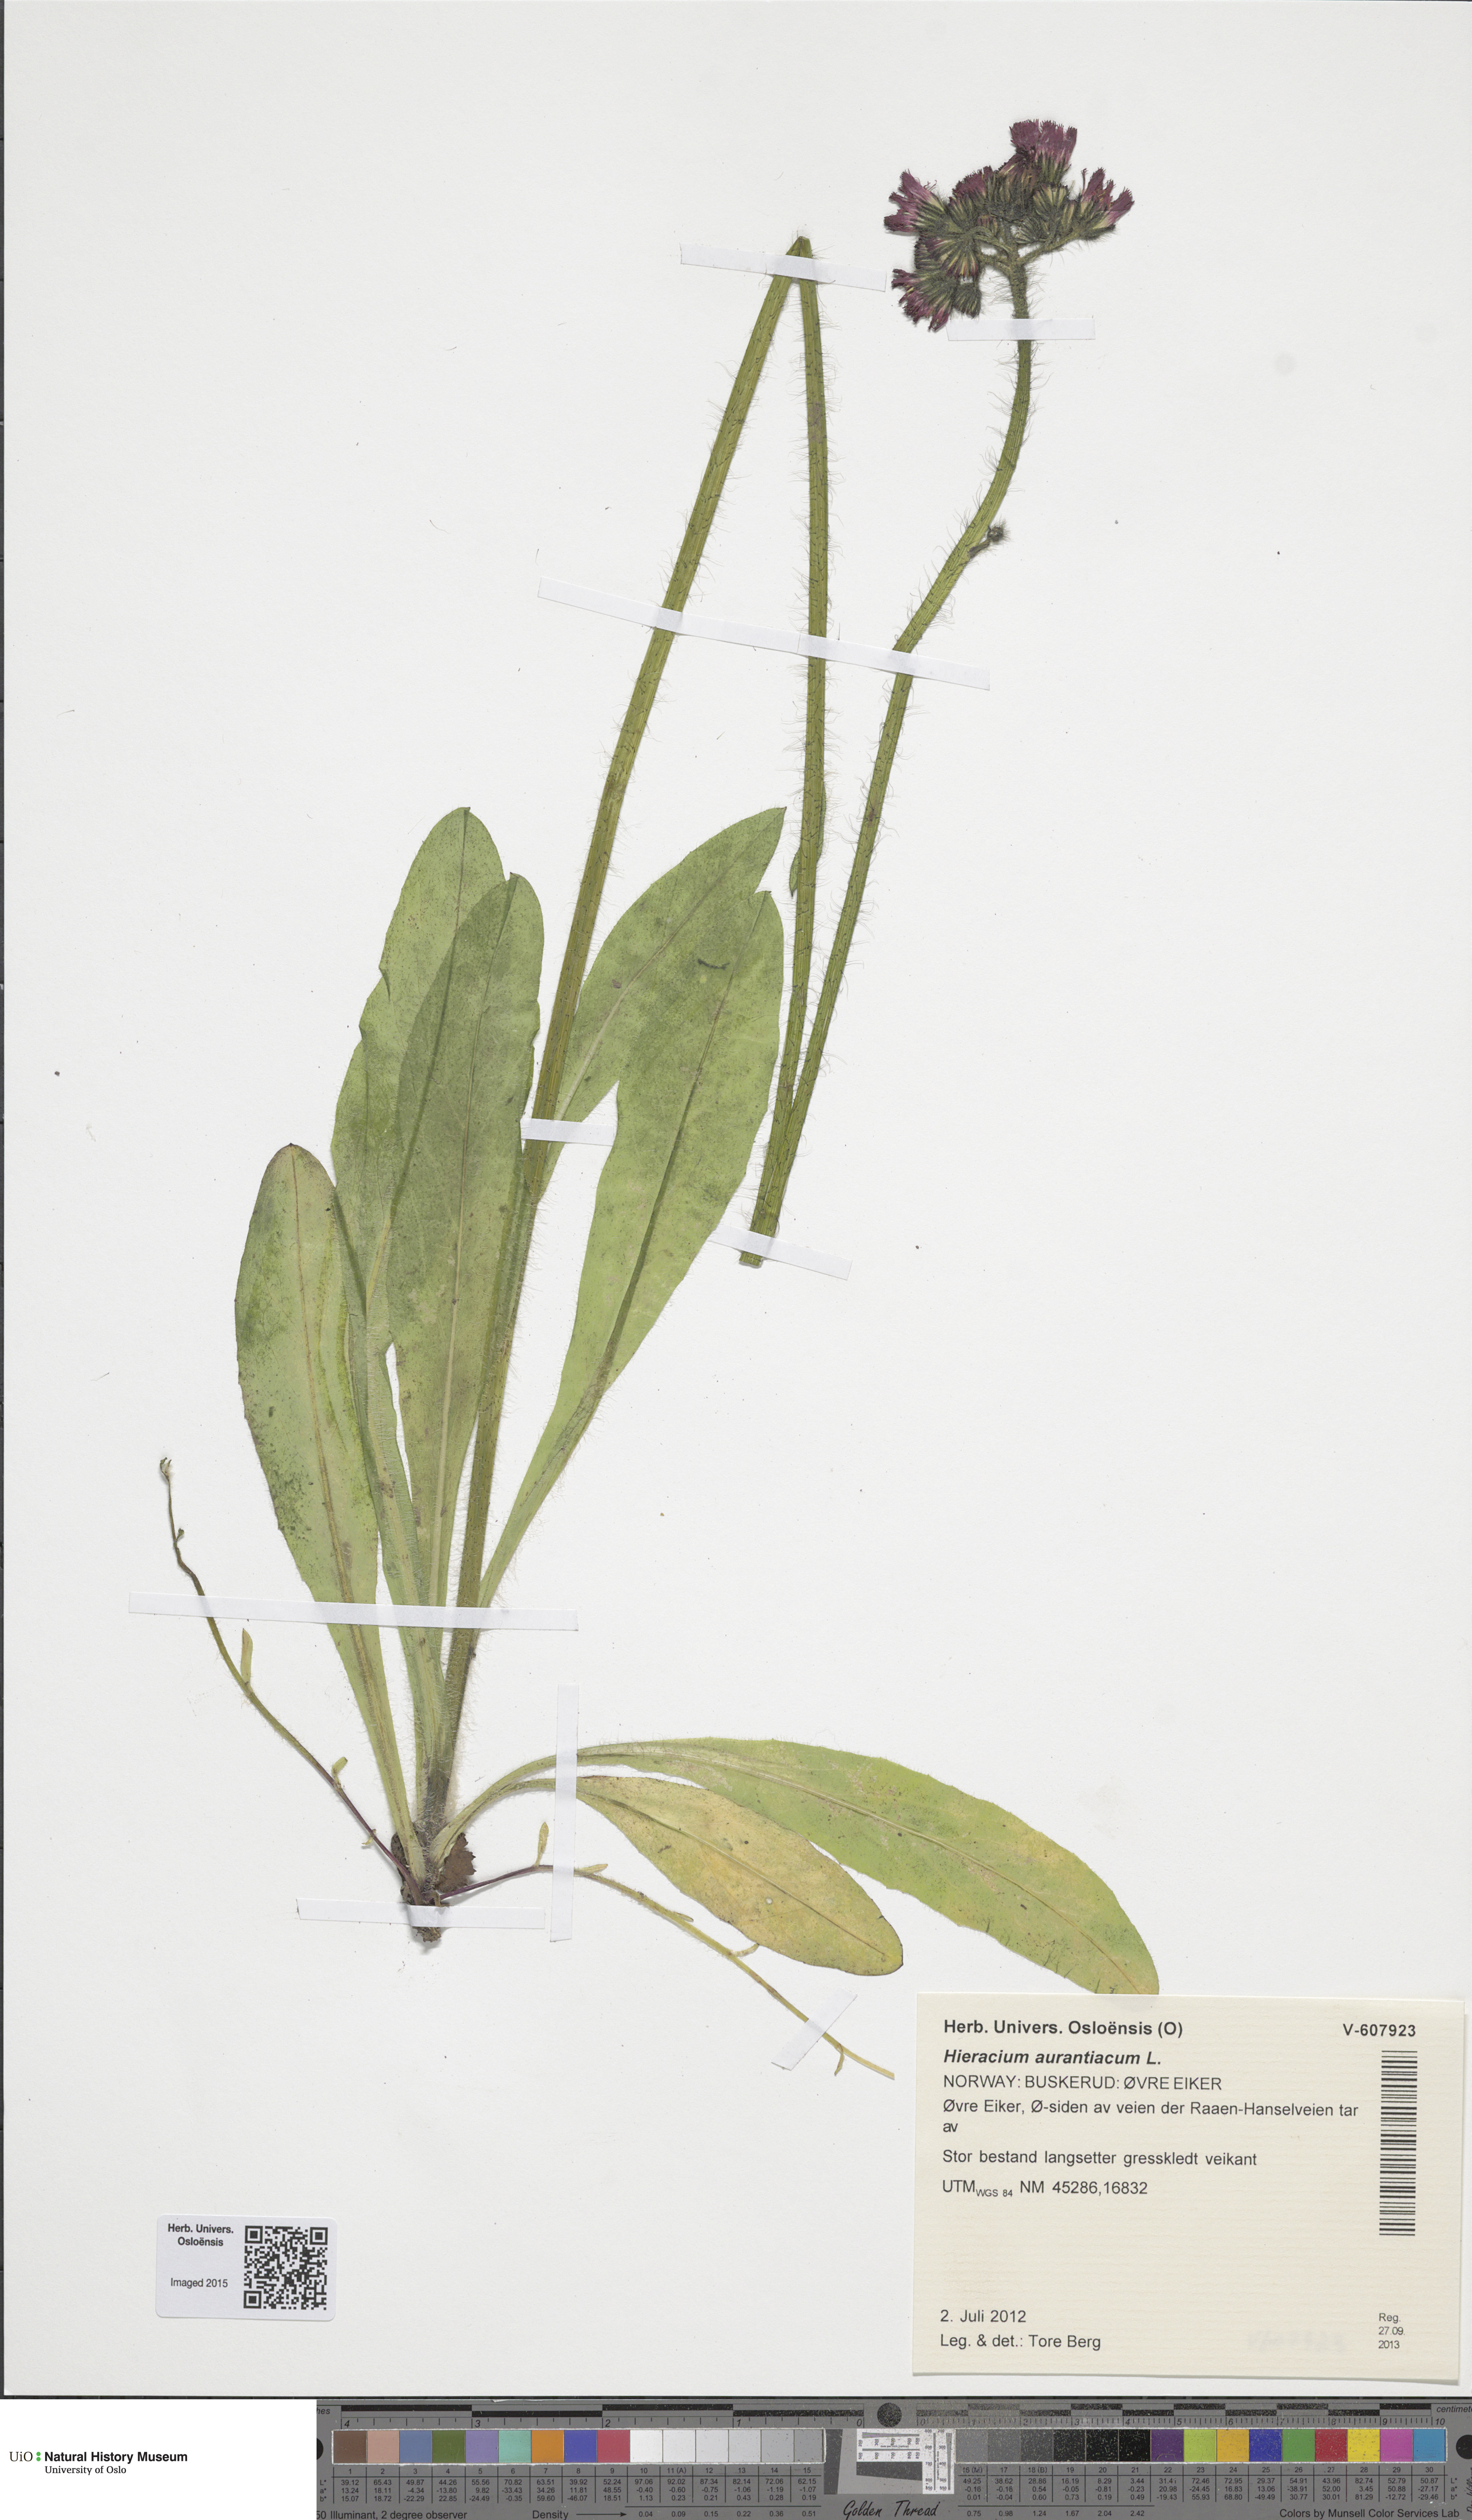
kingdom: Plantae
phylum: Tracheophyta
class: Magnoliopsida
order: Asterales
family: Asteraceae
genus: Pilosella
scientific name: Pilosella aurantiaca
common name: Fox-and-cubs
